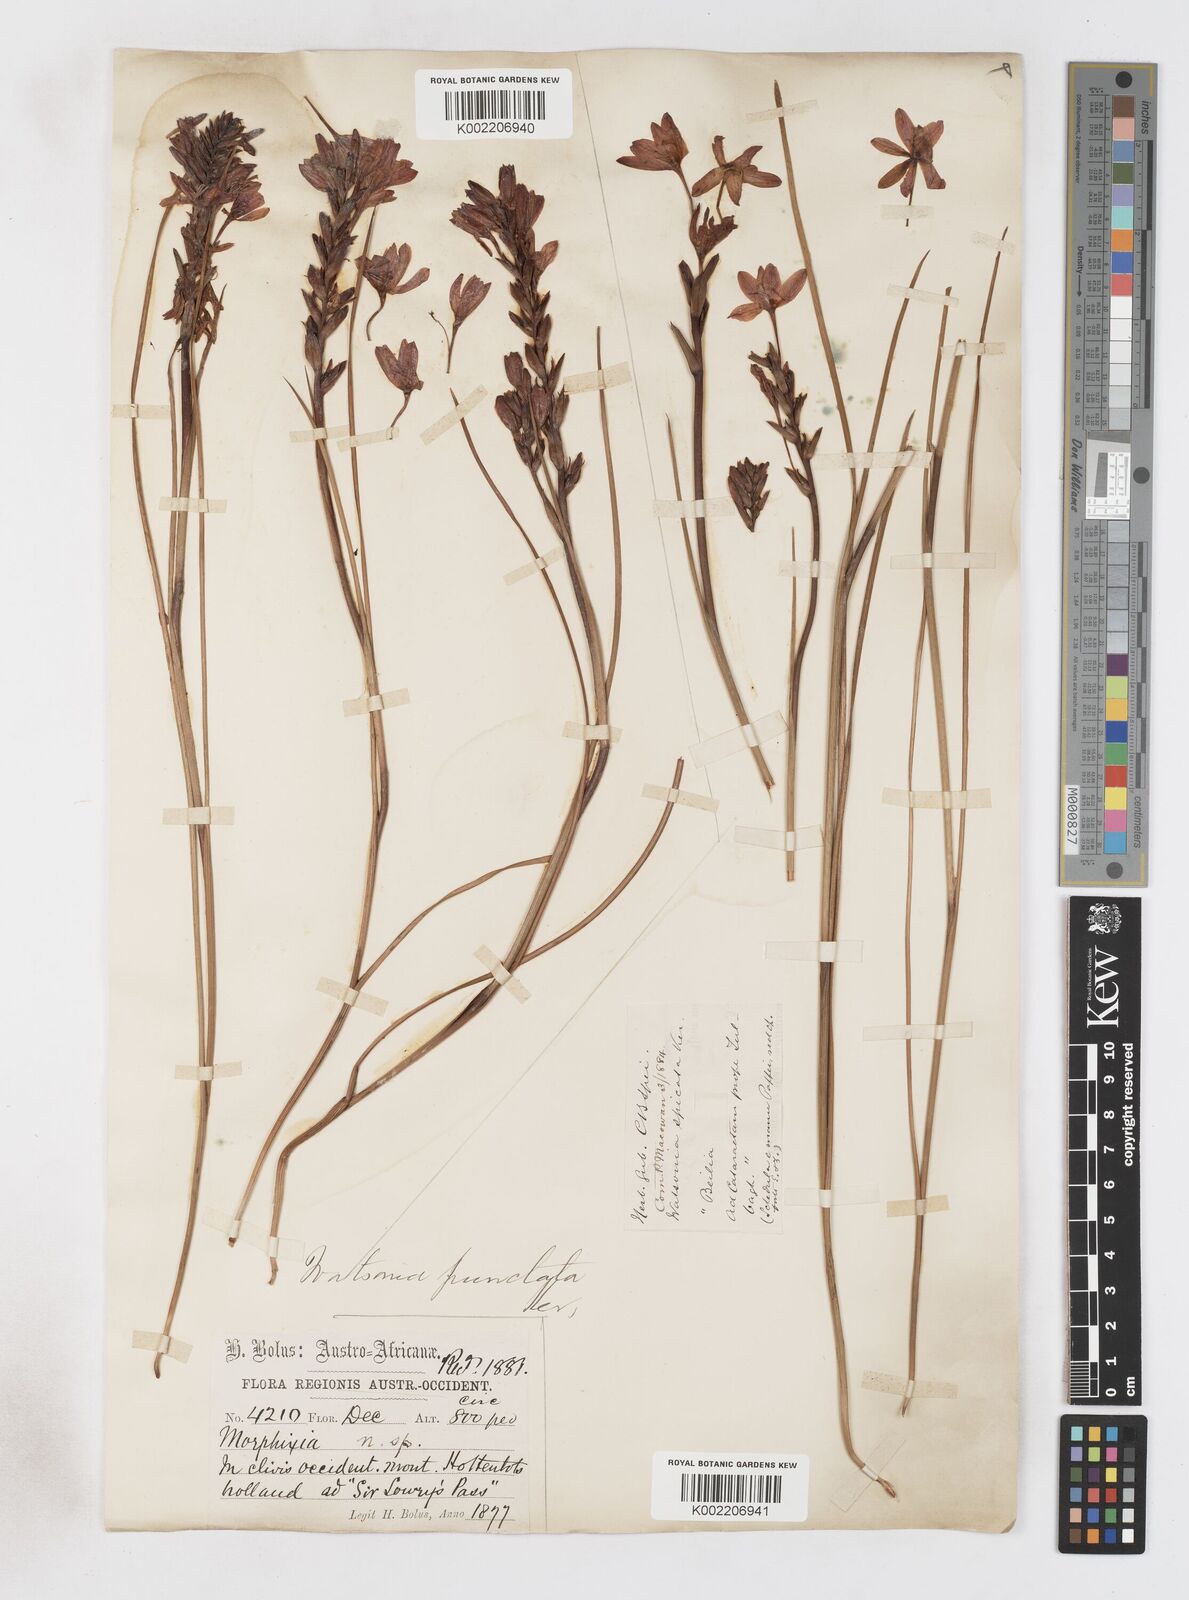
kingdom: Plantae
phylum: Tracheophyta
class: Liliopsida
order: Asparagales
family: Iridaceae
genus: Thereianthus
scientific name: Thereianthus spicatus
